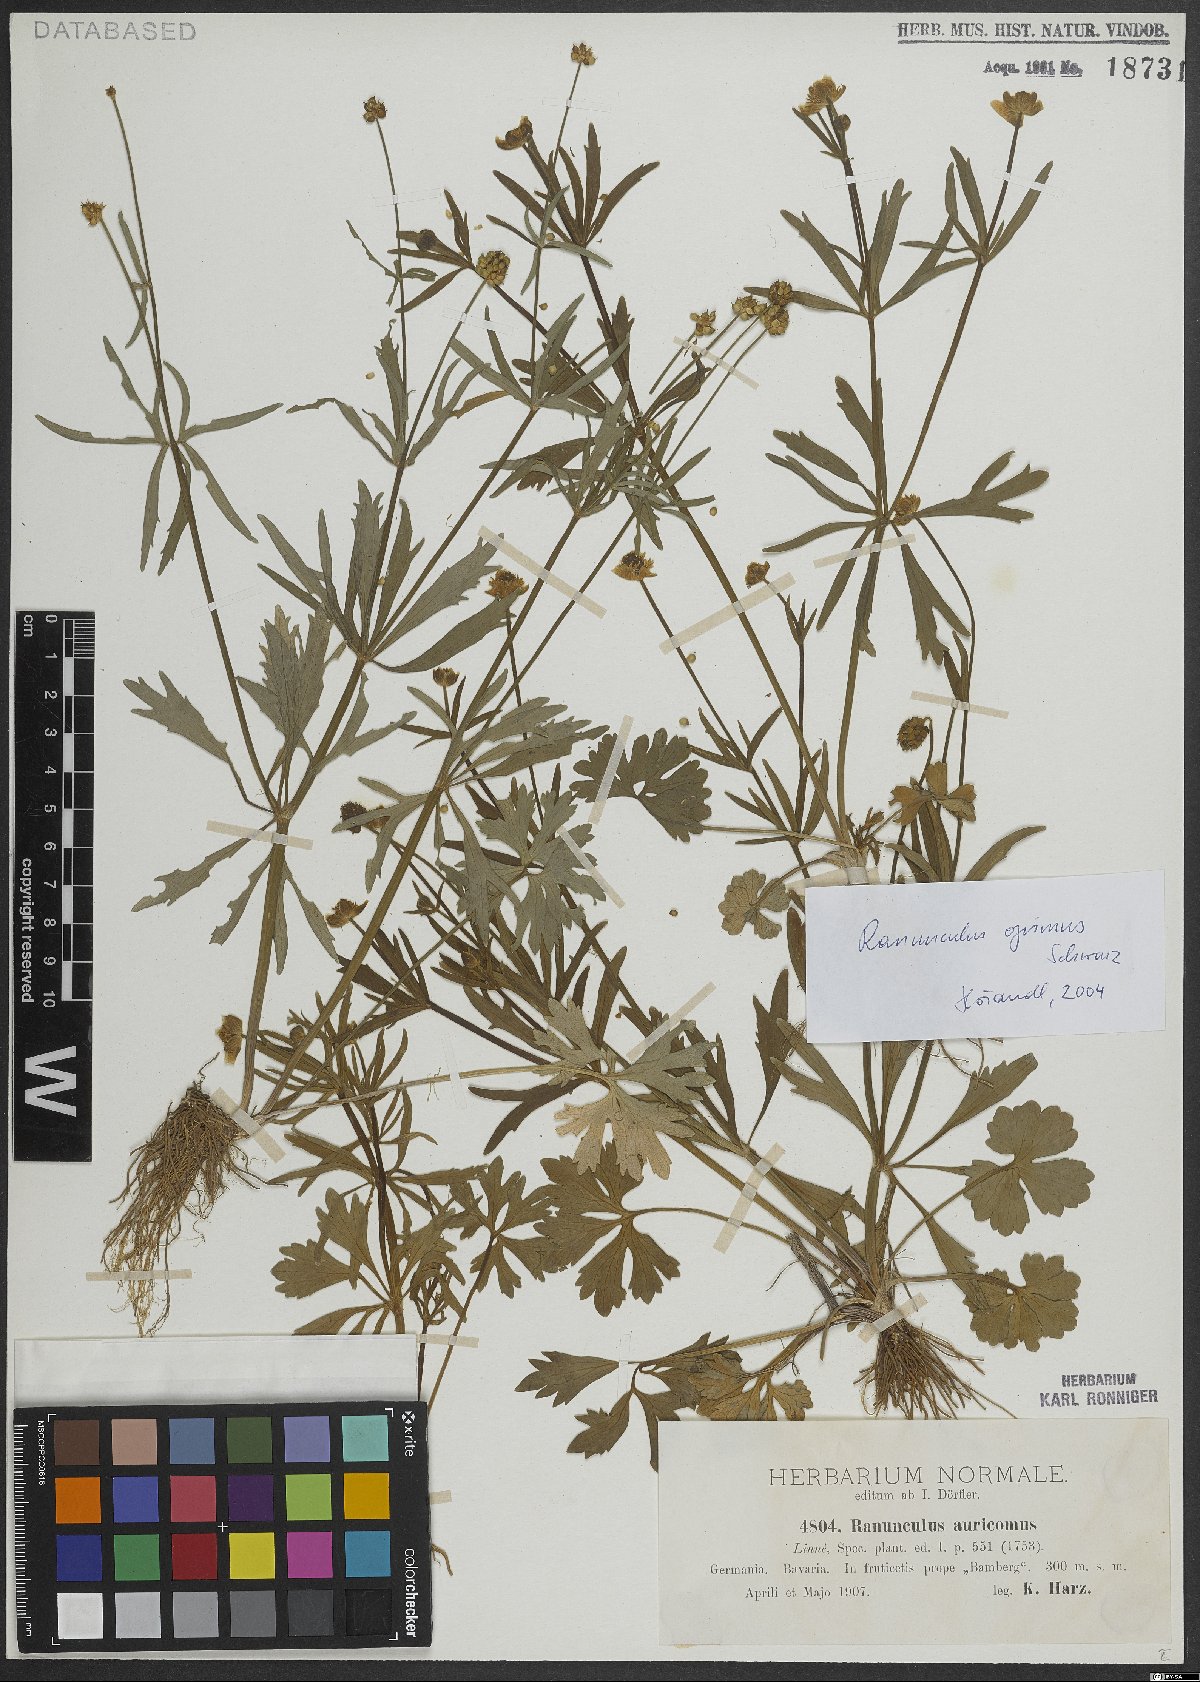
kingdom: Plantae
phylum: Tracheophyta
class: Magnoliopsida
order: Ranunculales
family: Ranunculaceae
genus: Ranunculus
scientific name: Ranunculus opimus
